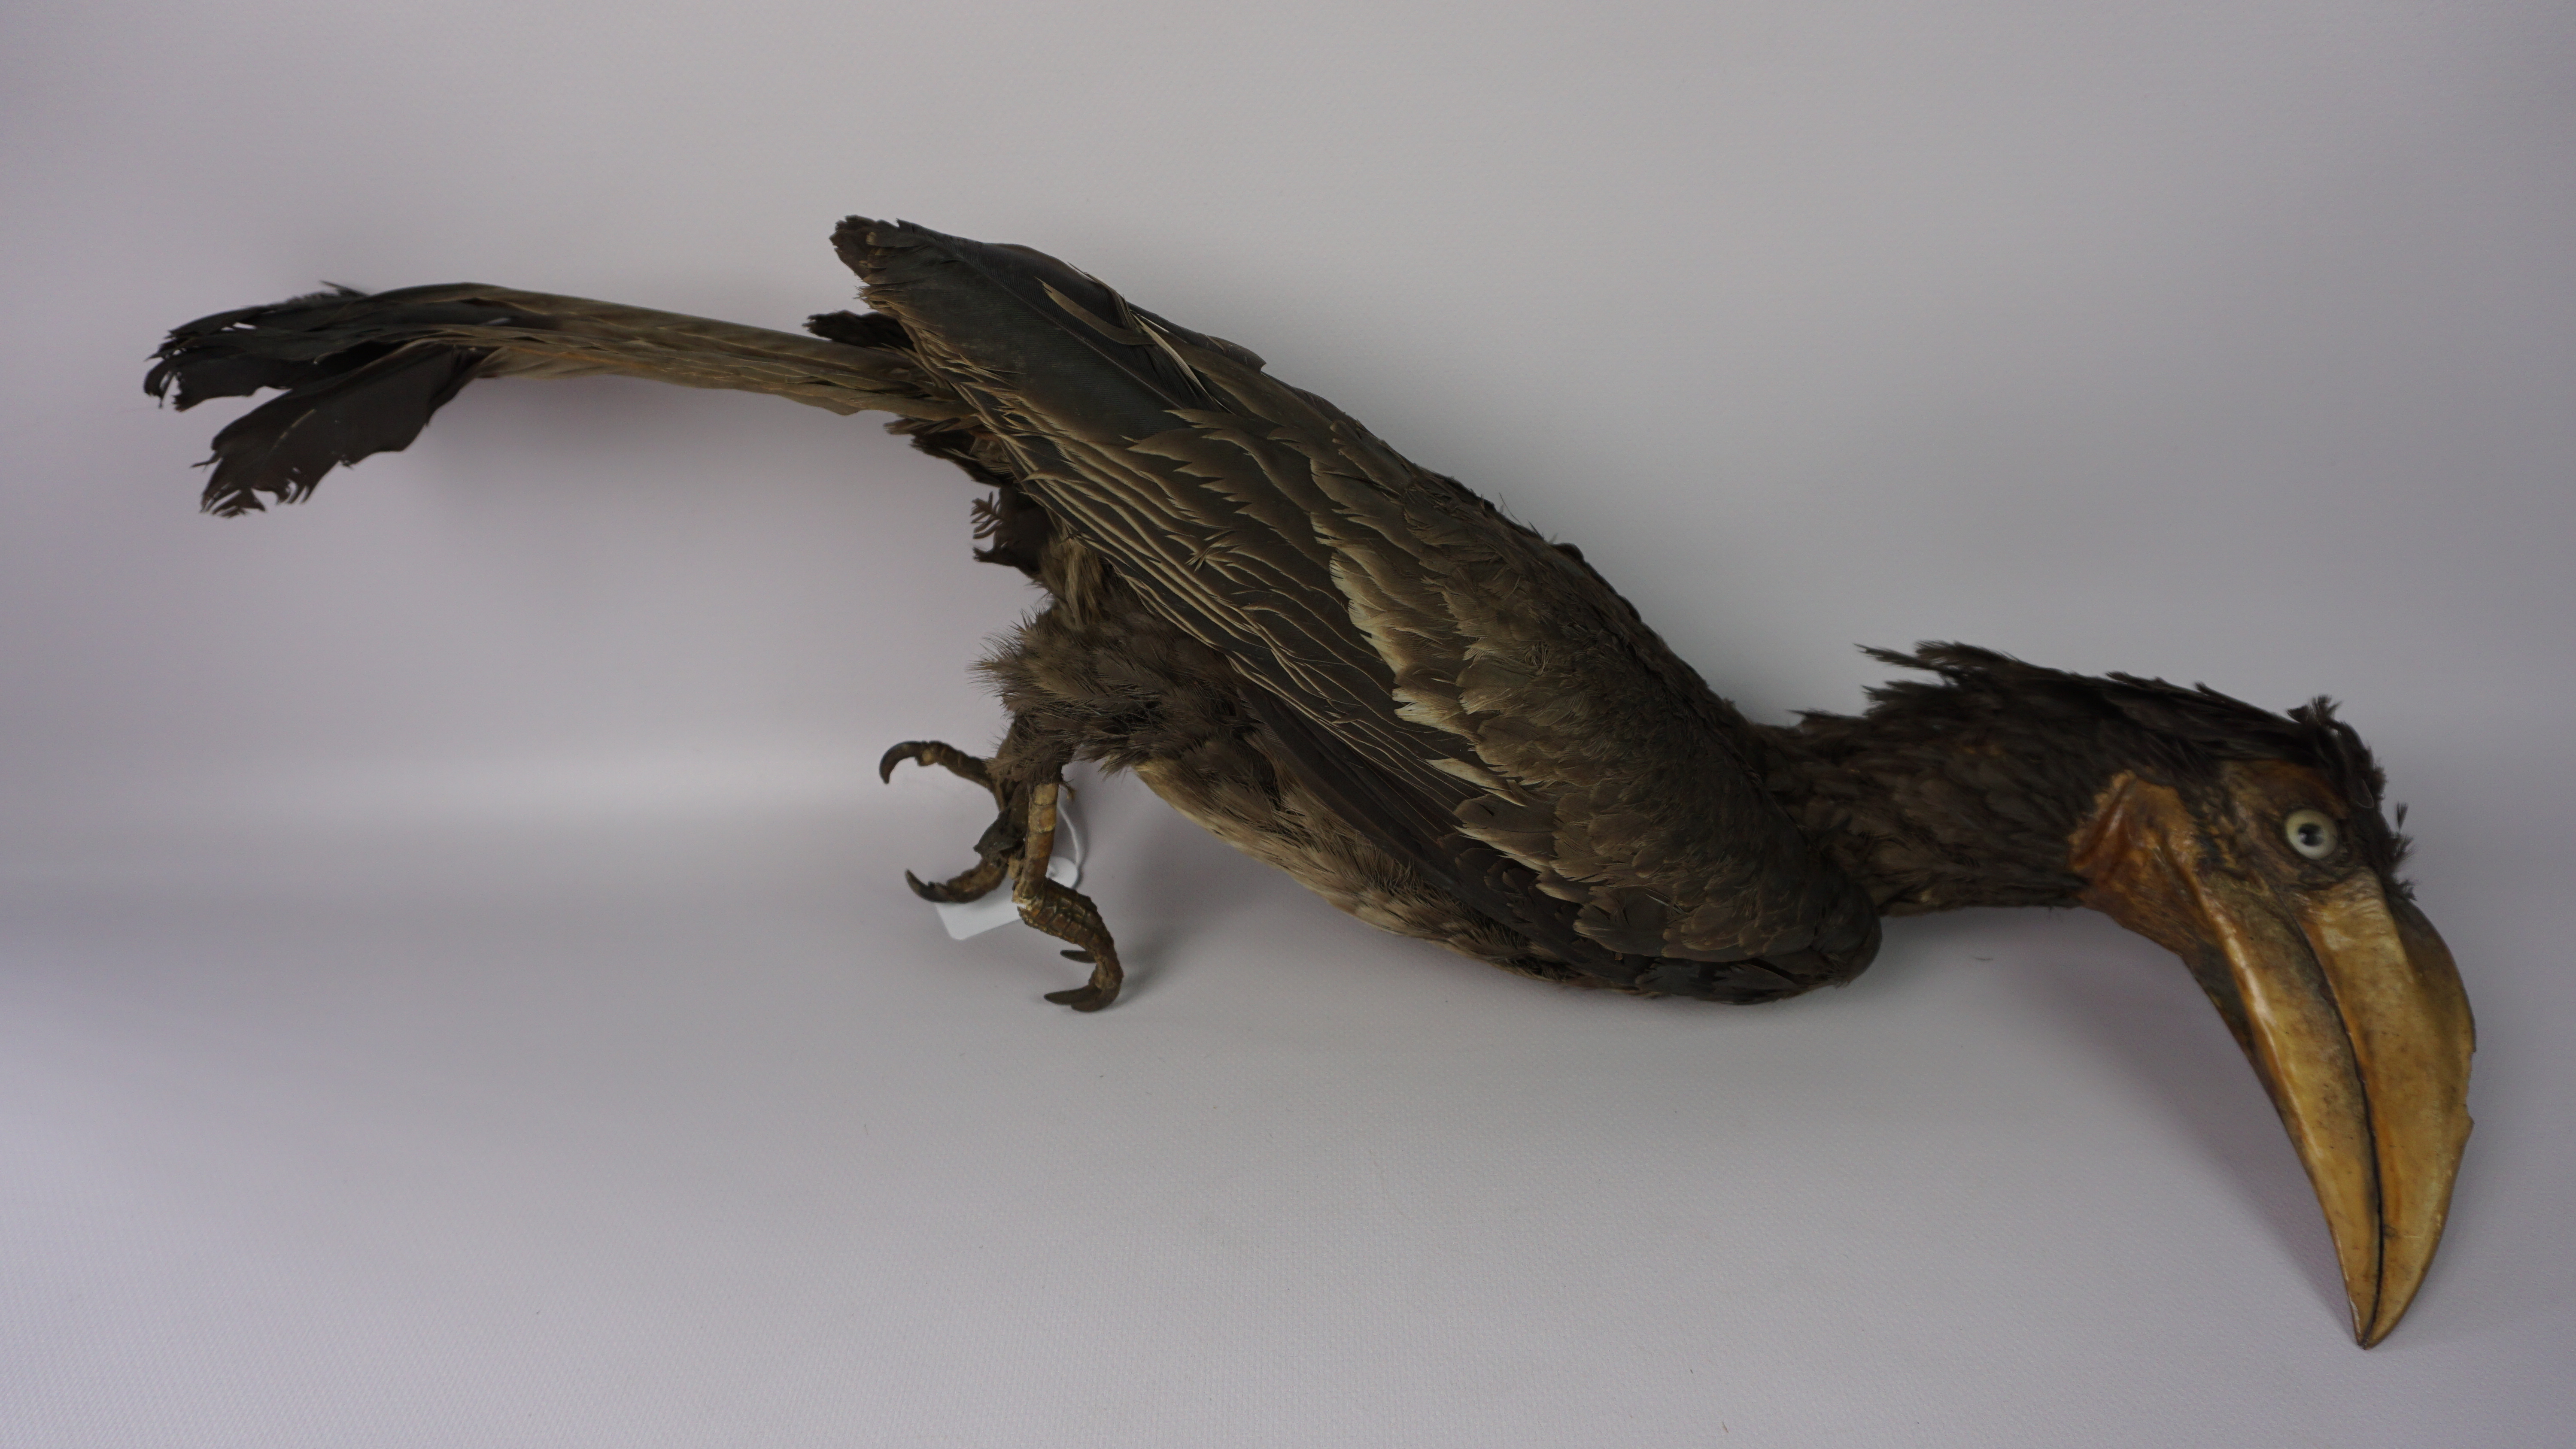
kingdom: Animalia
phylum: Chordata
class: Aves
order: Bucerotiformes
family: Bucerotidae
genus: Anorrhinus
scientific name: Anorrhinus galeritus
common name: Bushy-crested hornbill
